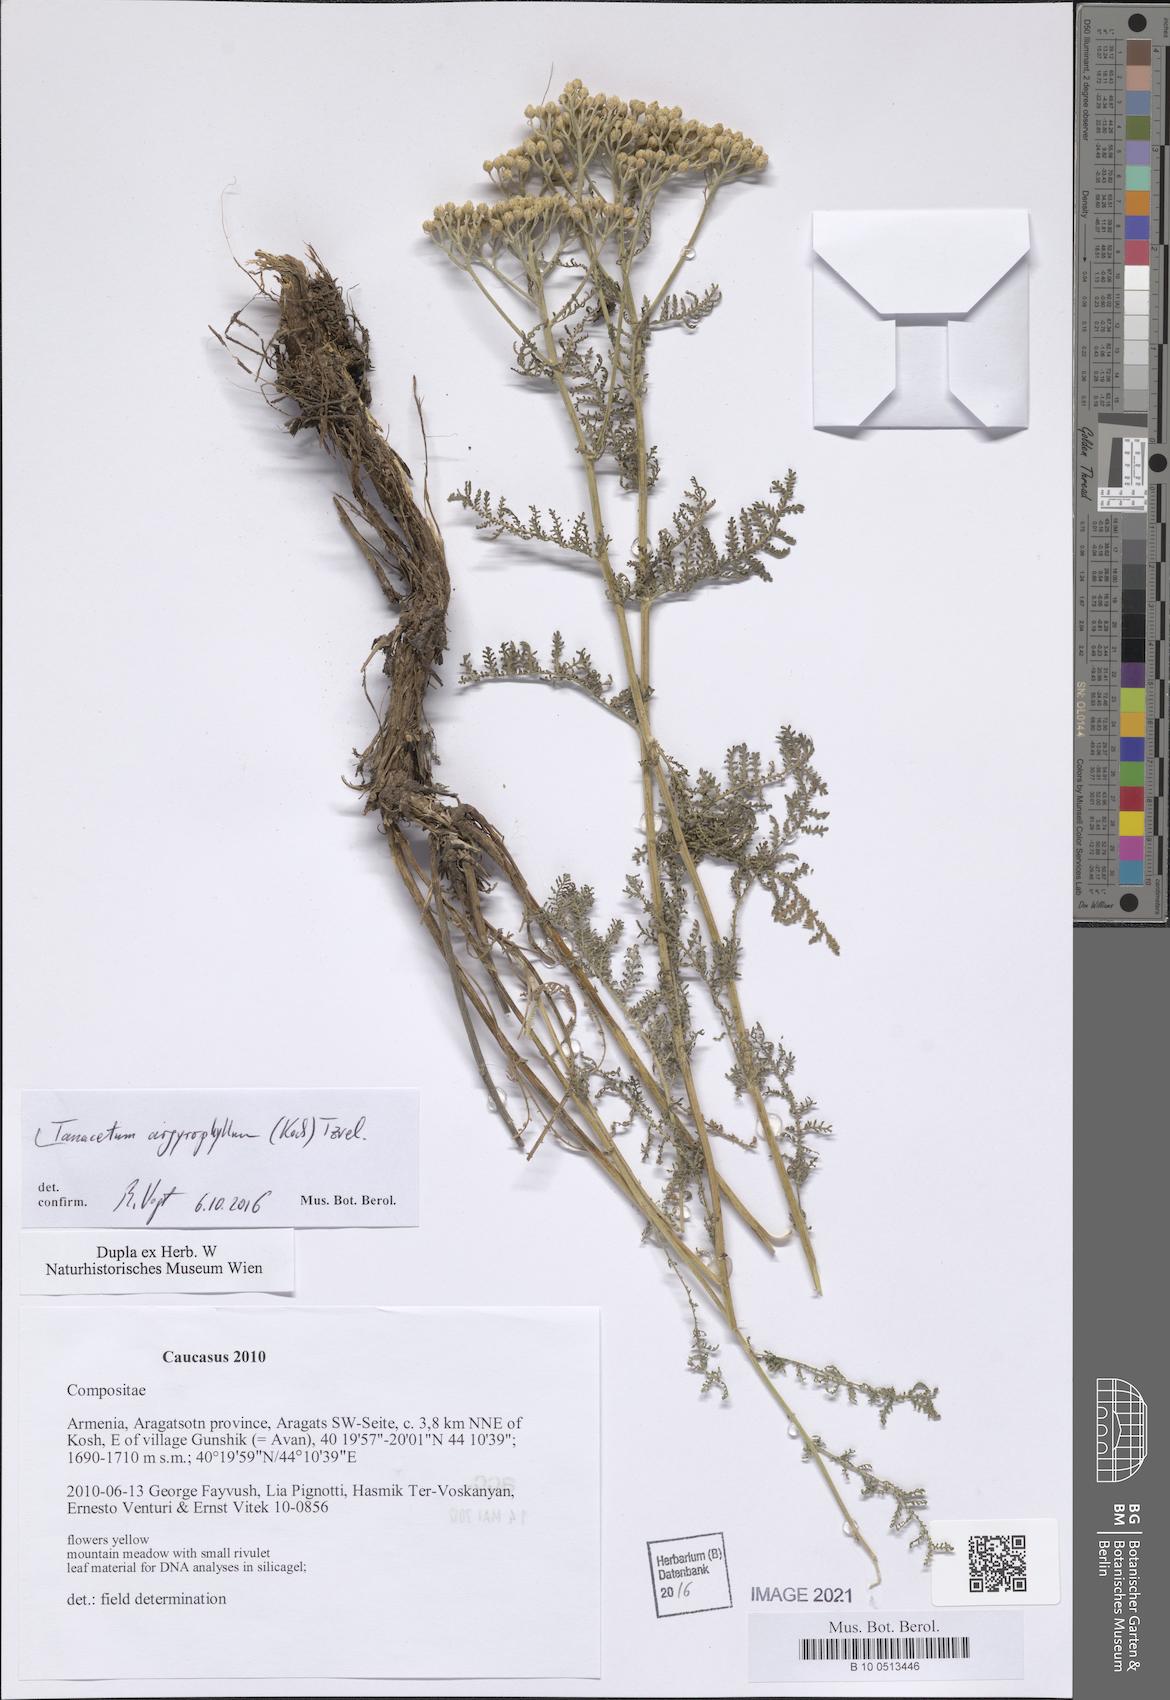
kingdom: Plantae
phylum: Tracheophyta
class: Magnoliopsida
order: Asterales
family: Asteraceae
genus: Tanacetum
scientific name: Tanacetum polycephalum
